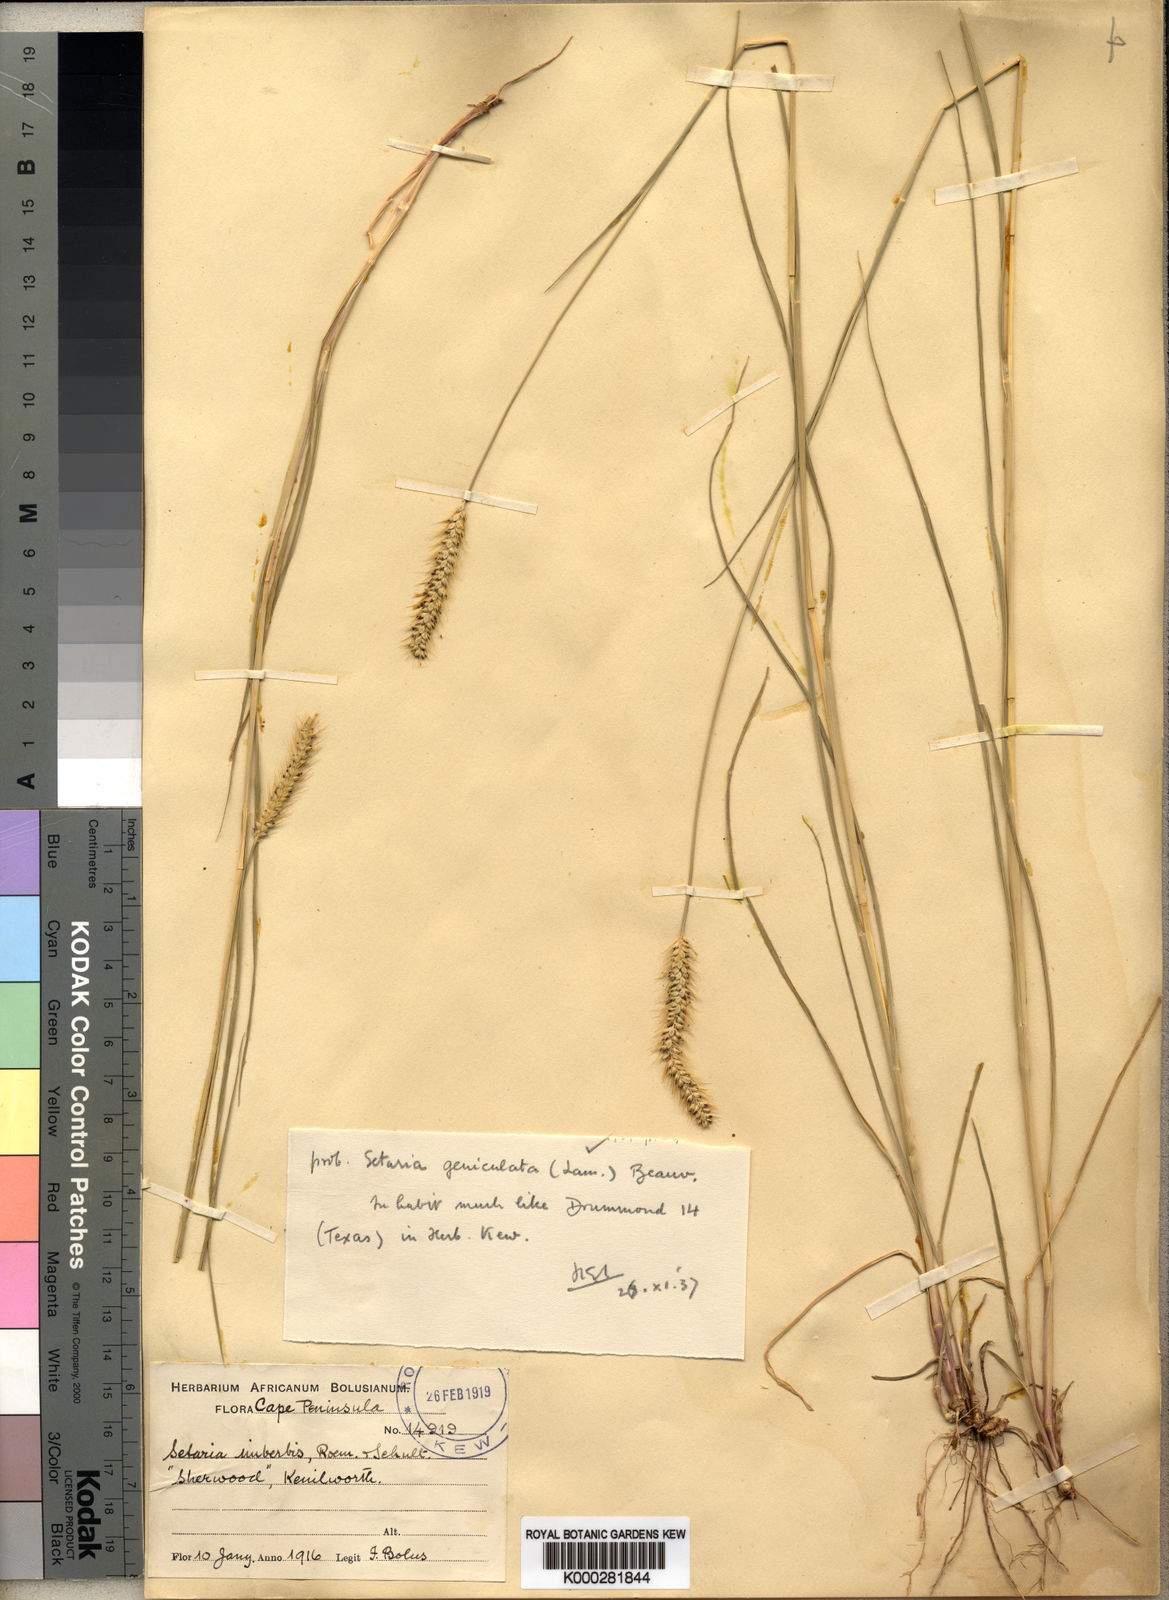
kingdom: Plantae
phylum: Tracheophyta
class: Liliopsida
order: Poales
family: Poaceae
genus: Setaria
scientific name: Setaria
